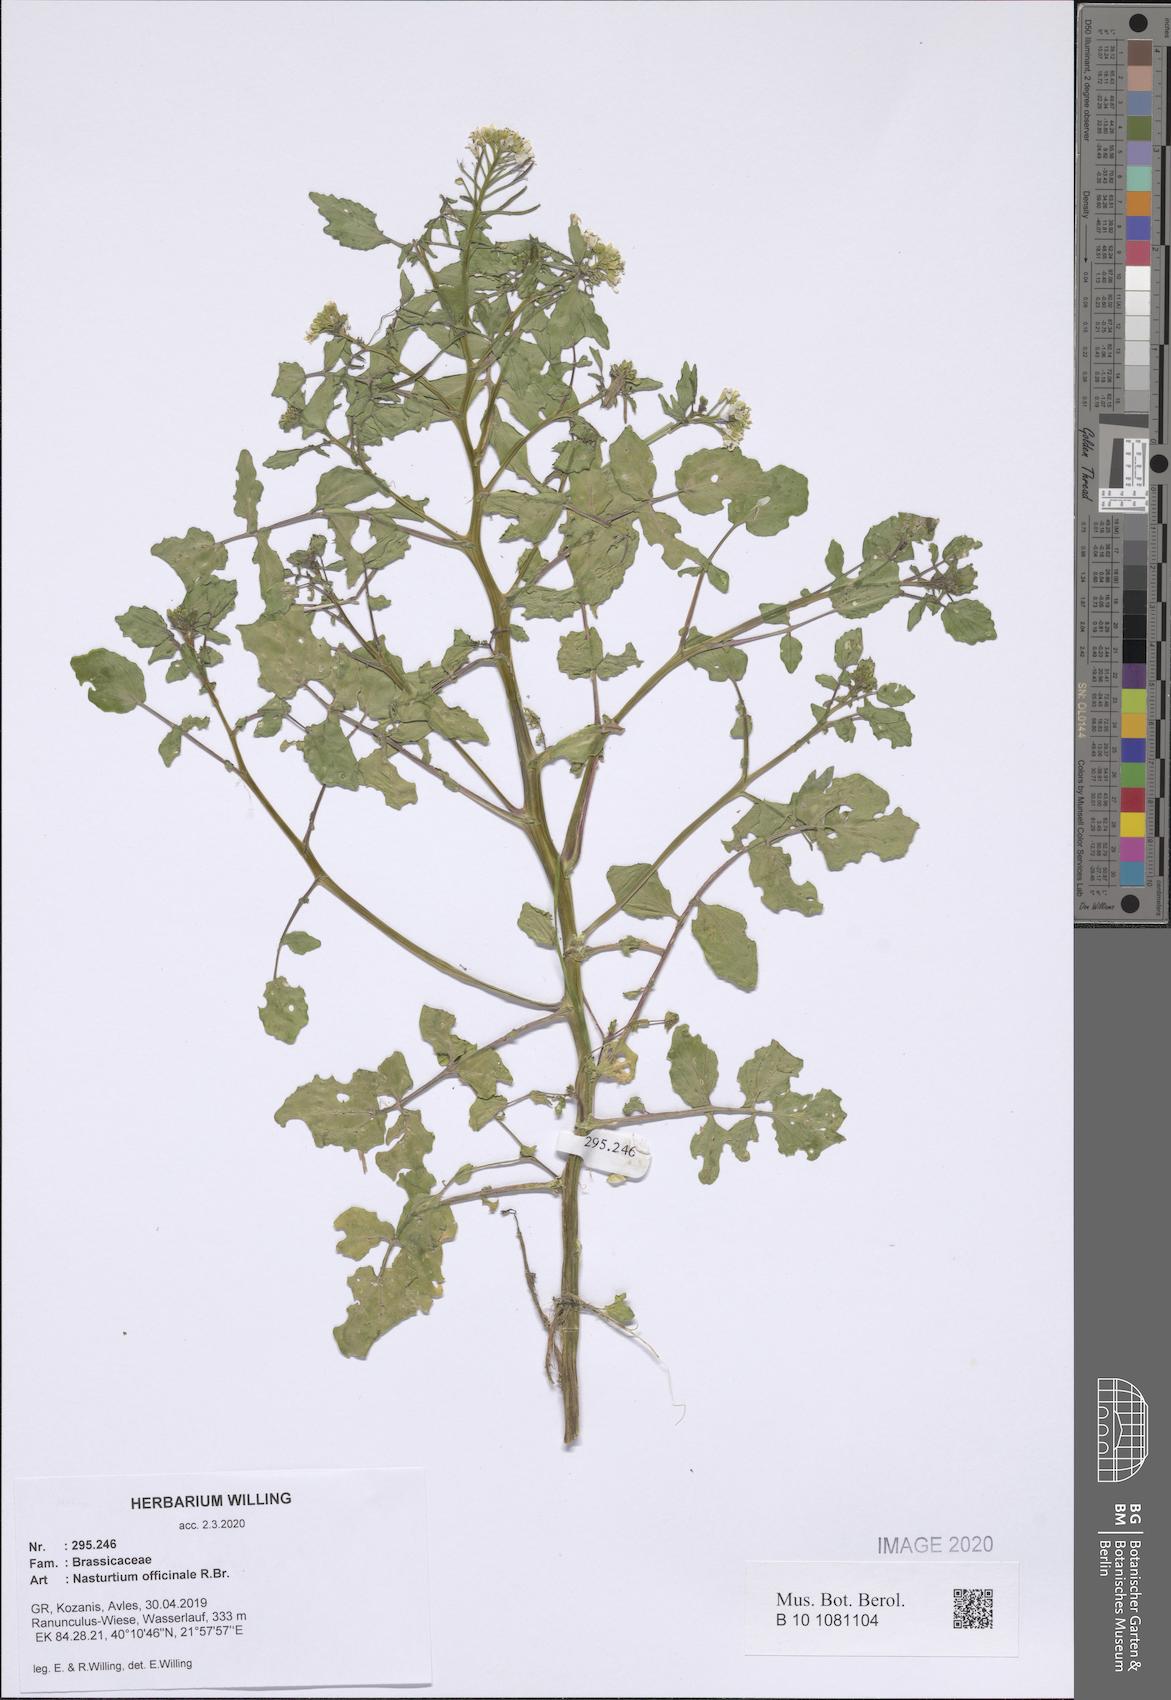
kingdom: Plantae
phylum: Tracheophyta
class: Magnoliopsida
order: Brassicales
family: Brassicaceae
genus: Nasturtium
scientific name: Nasturtium officinale
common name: Watercress
